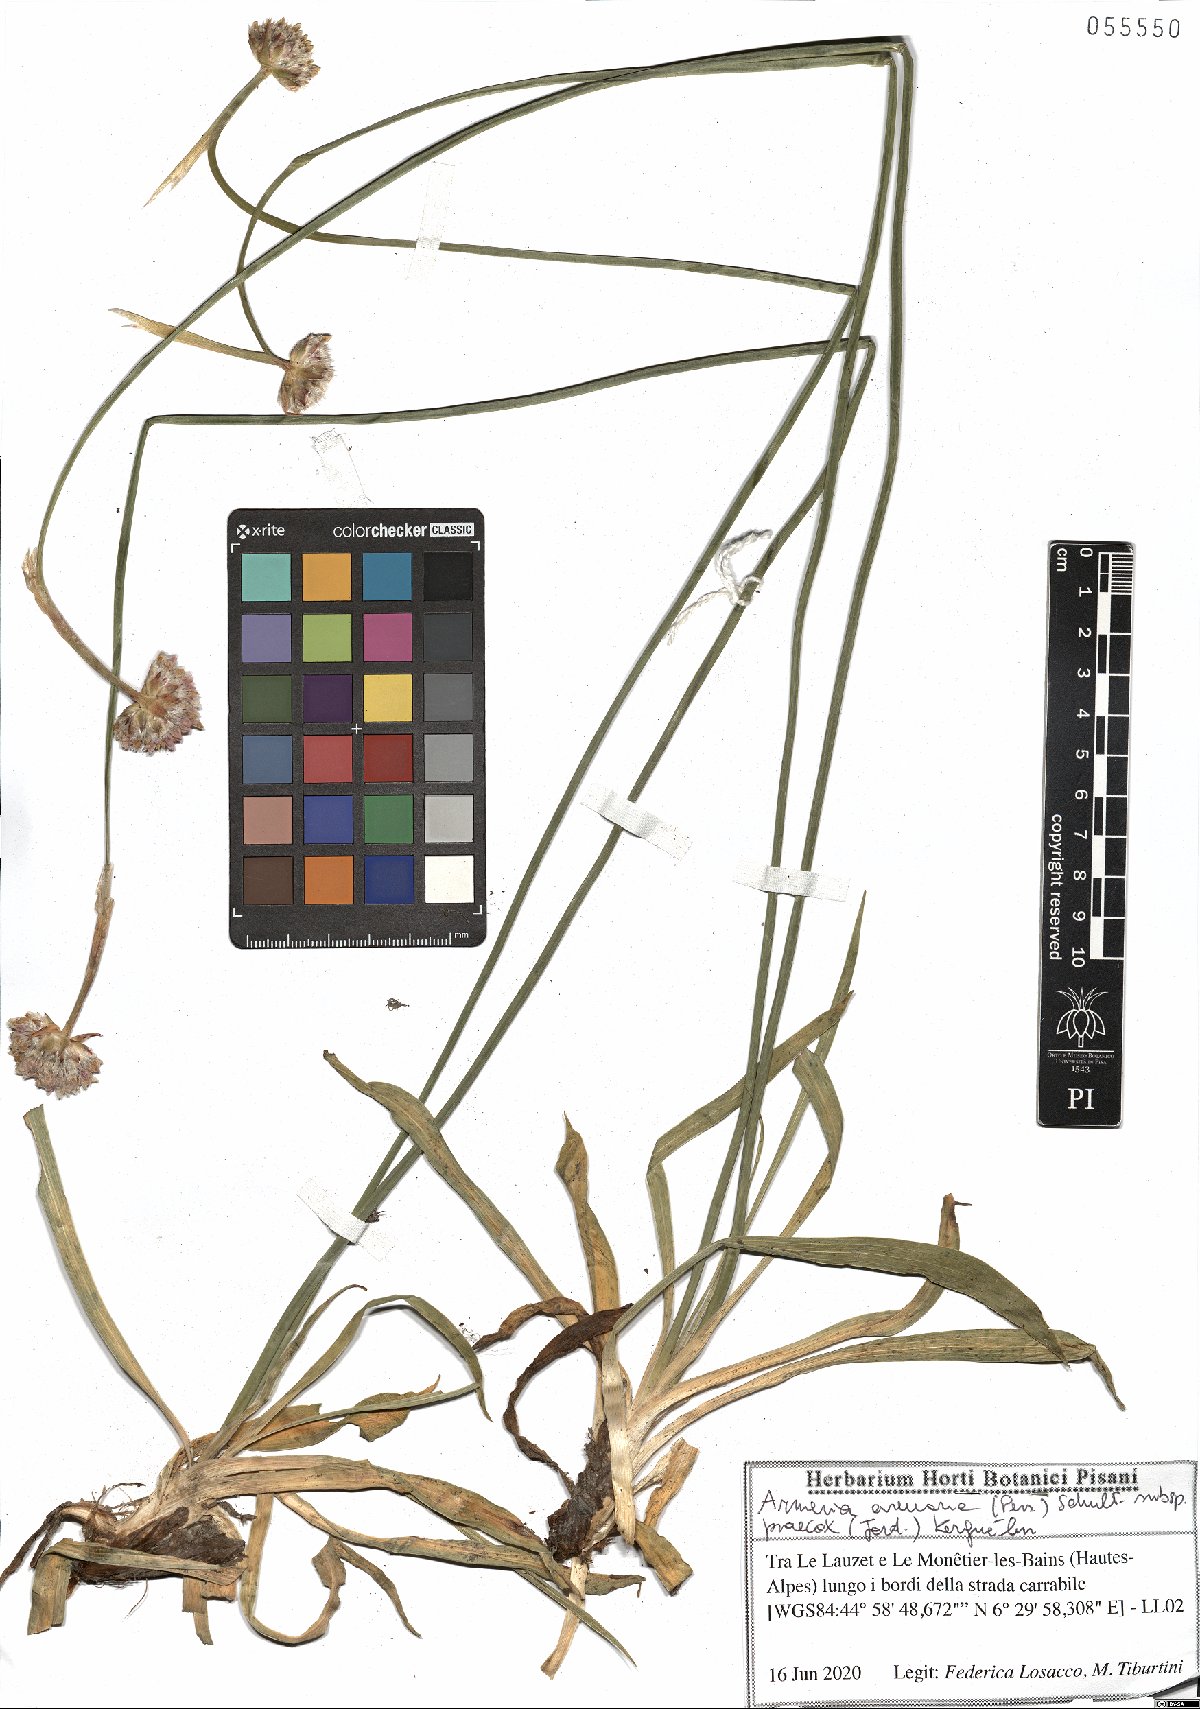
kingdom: Plantae
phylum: Tracheophyta
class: Magnoliopsida
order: Caryophyllales
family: Plumbaginaceae
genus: Armeria
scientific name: Armeria arenaria
